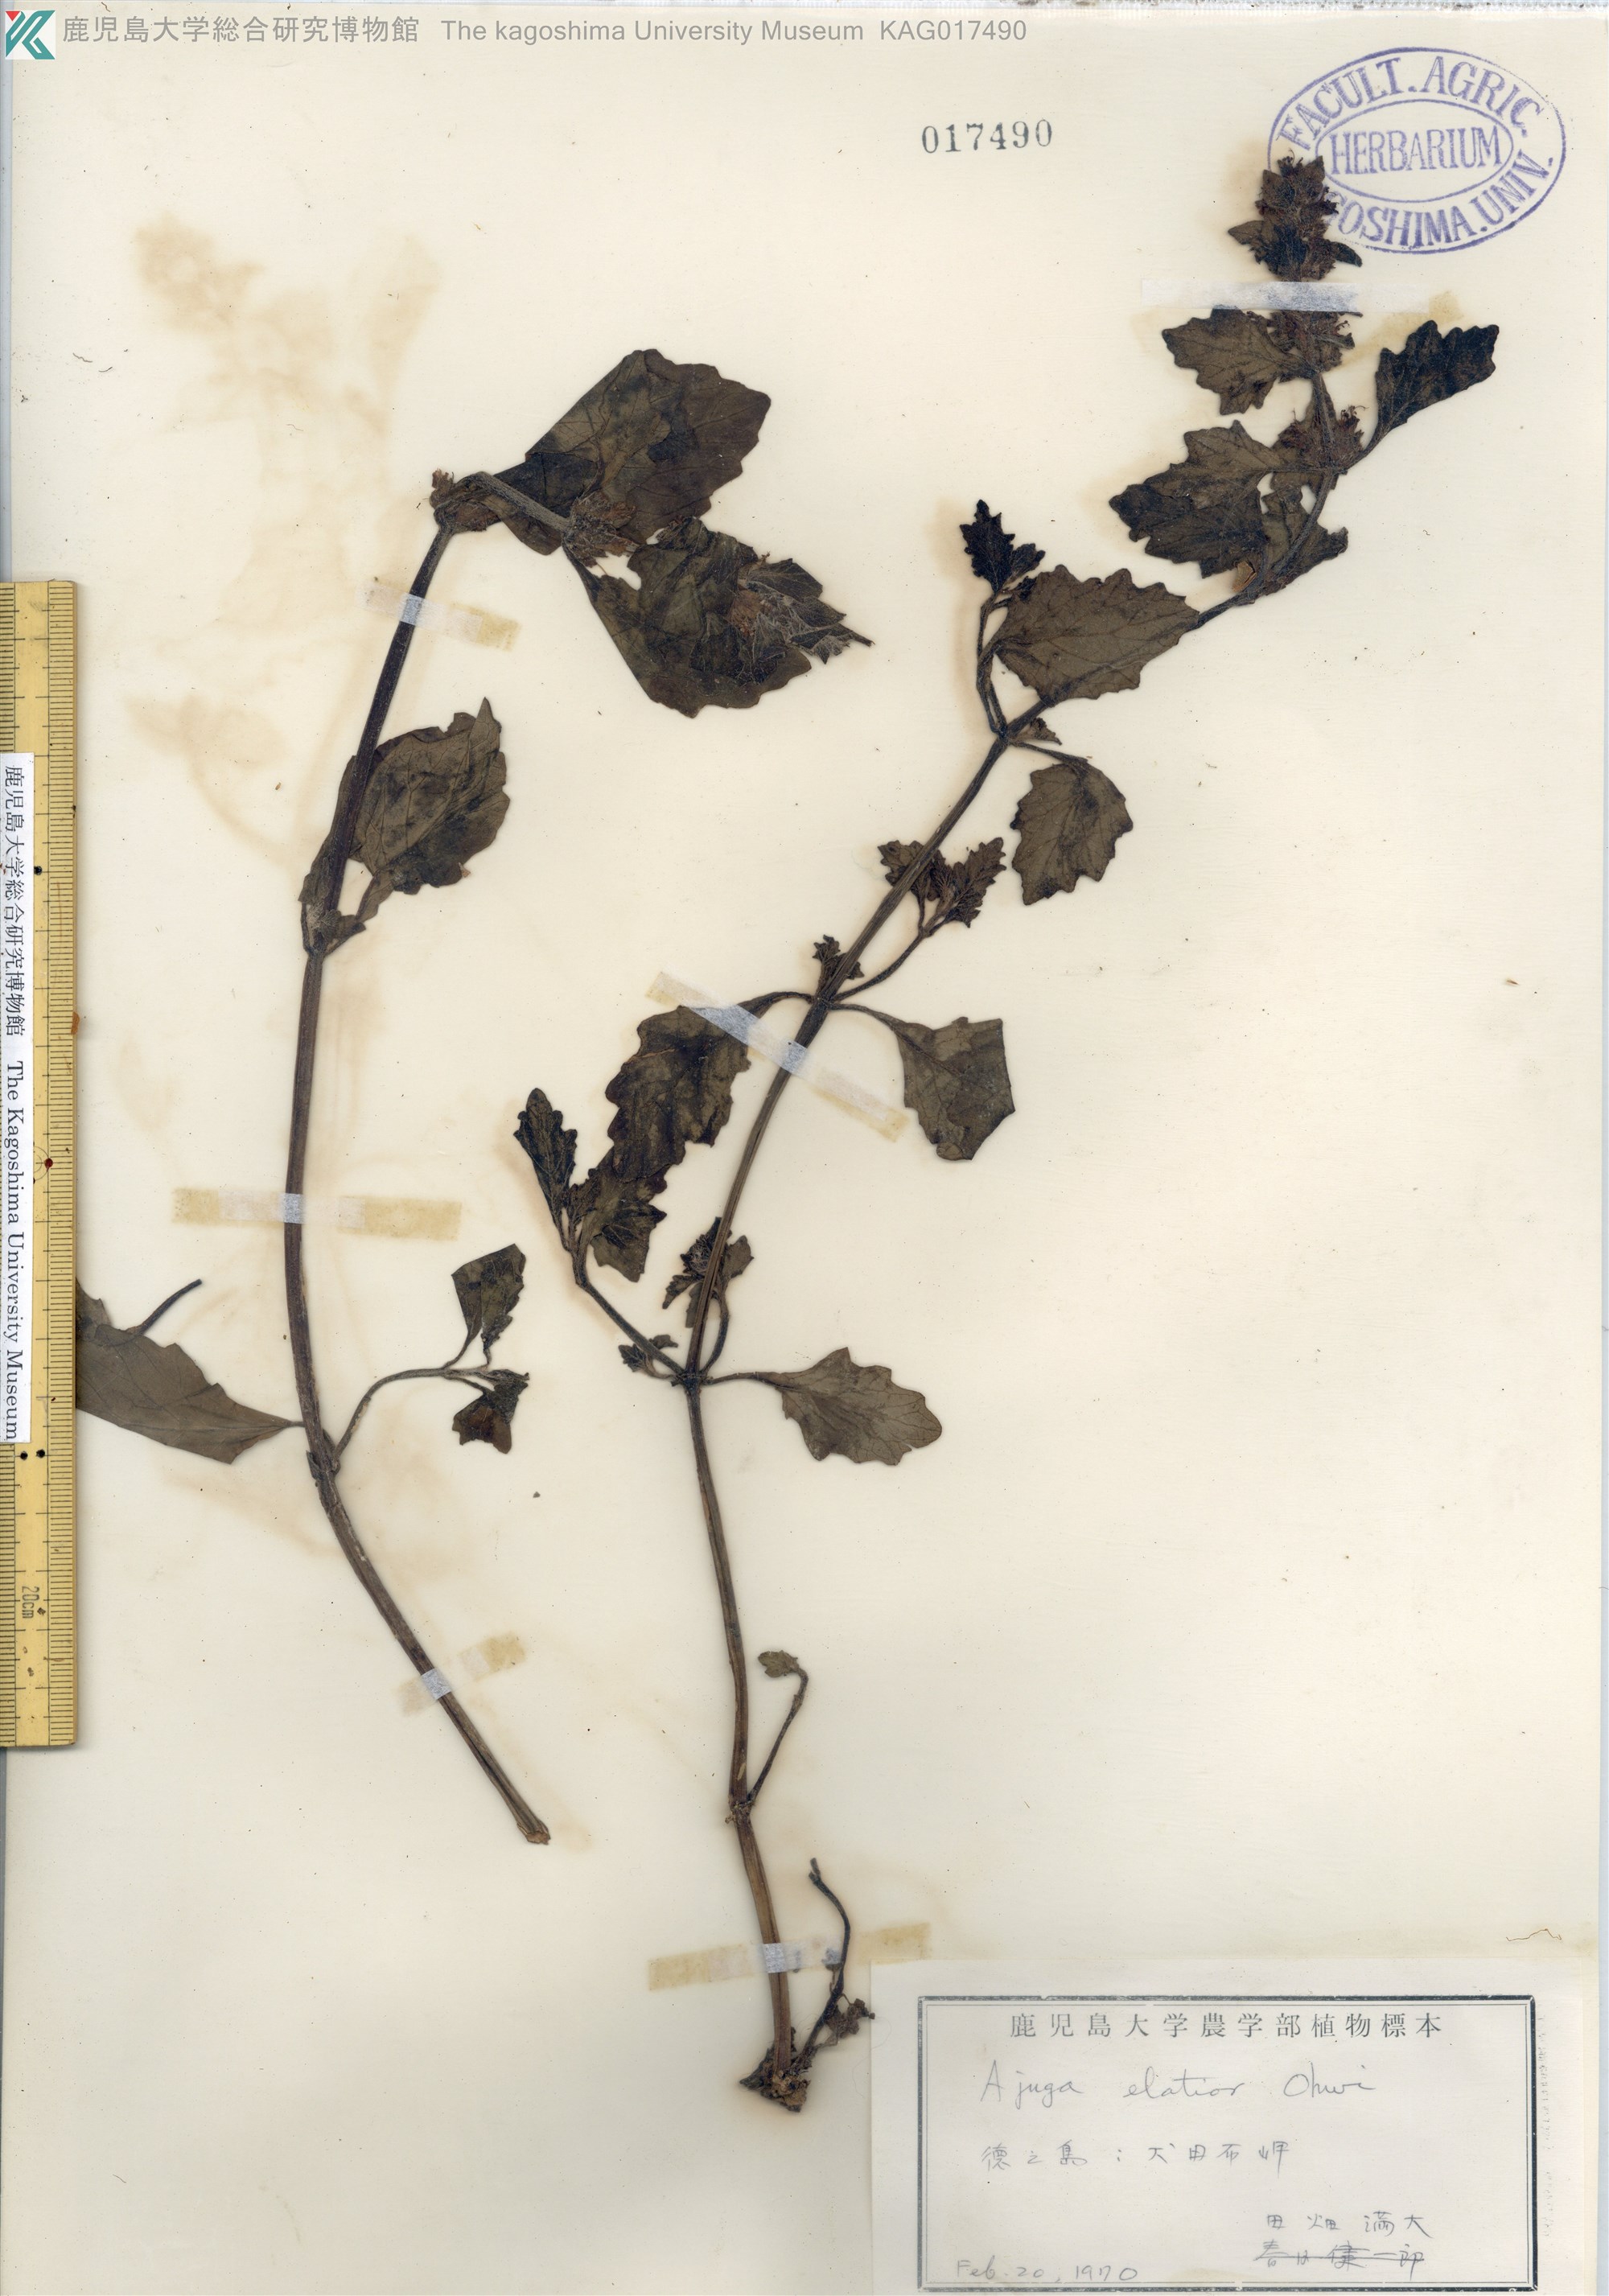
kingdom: Plantae
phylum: Tracheophyta
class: Magnoliopsida
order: Lamiales
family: Lamiaceae
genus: Ajuga
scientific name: Ajuga dictyocarpa
